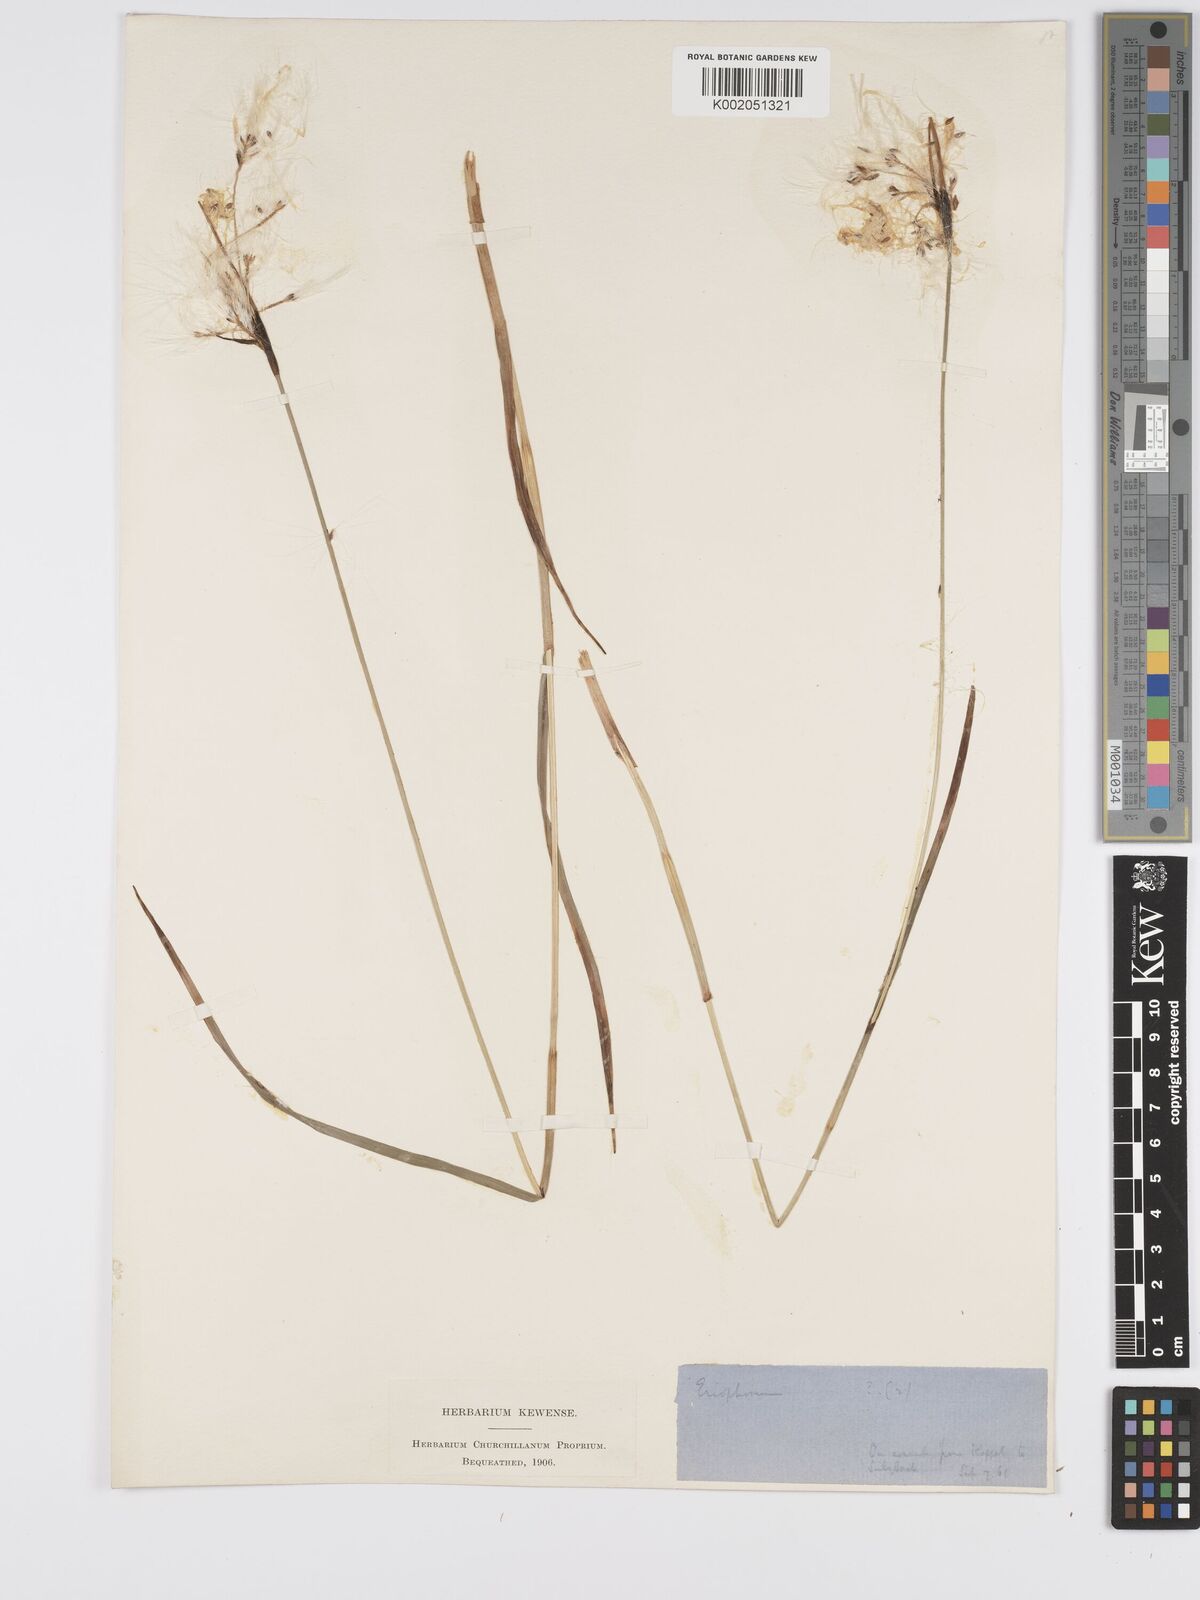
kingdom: Plantae
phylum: Tracheophyta
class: Liliopsida
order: Poales
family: Cyperaceae
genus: Eriophorum
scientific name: Eriophorum latifolium
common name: Broad-leaved cottongrass
